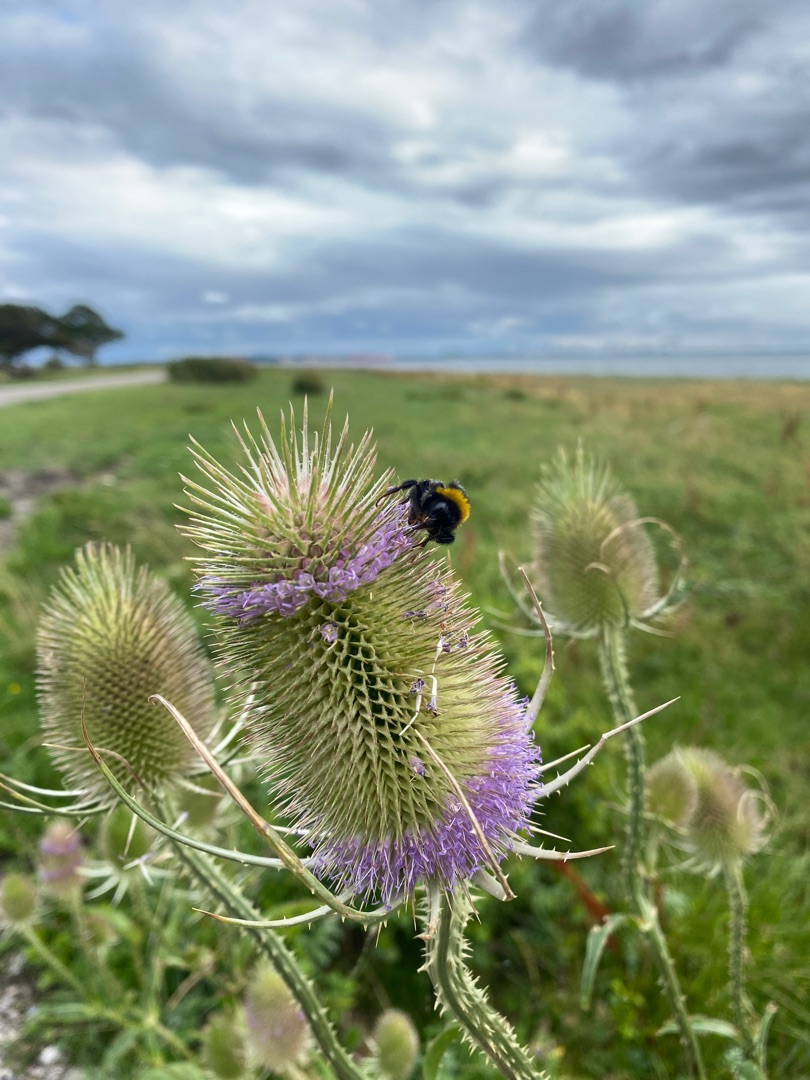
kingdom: Plantae
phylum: Tracheophyta
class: Magnoliopsida
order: Dipsacales
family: Caprifoliaceae
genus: Dipsacus
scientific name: Dipsacus fullonum
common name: Gærde-kartebolle
